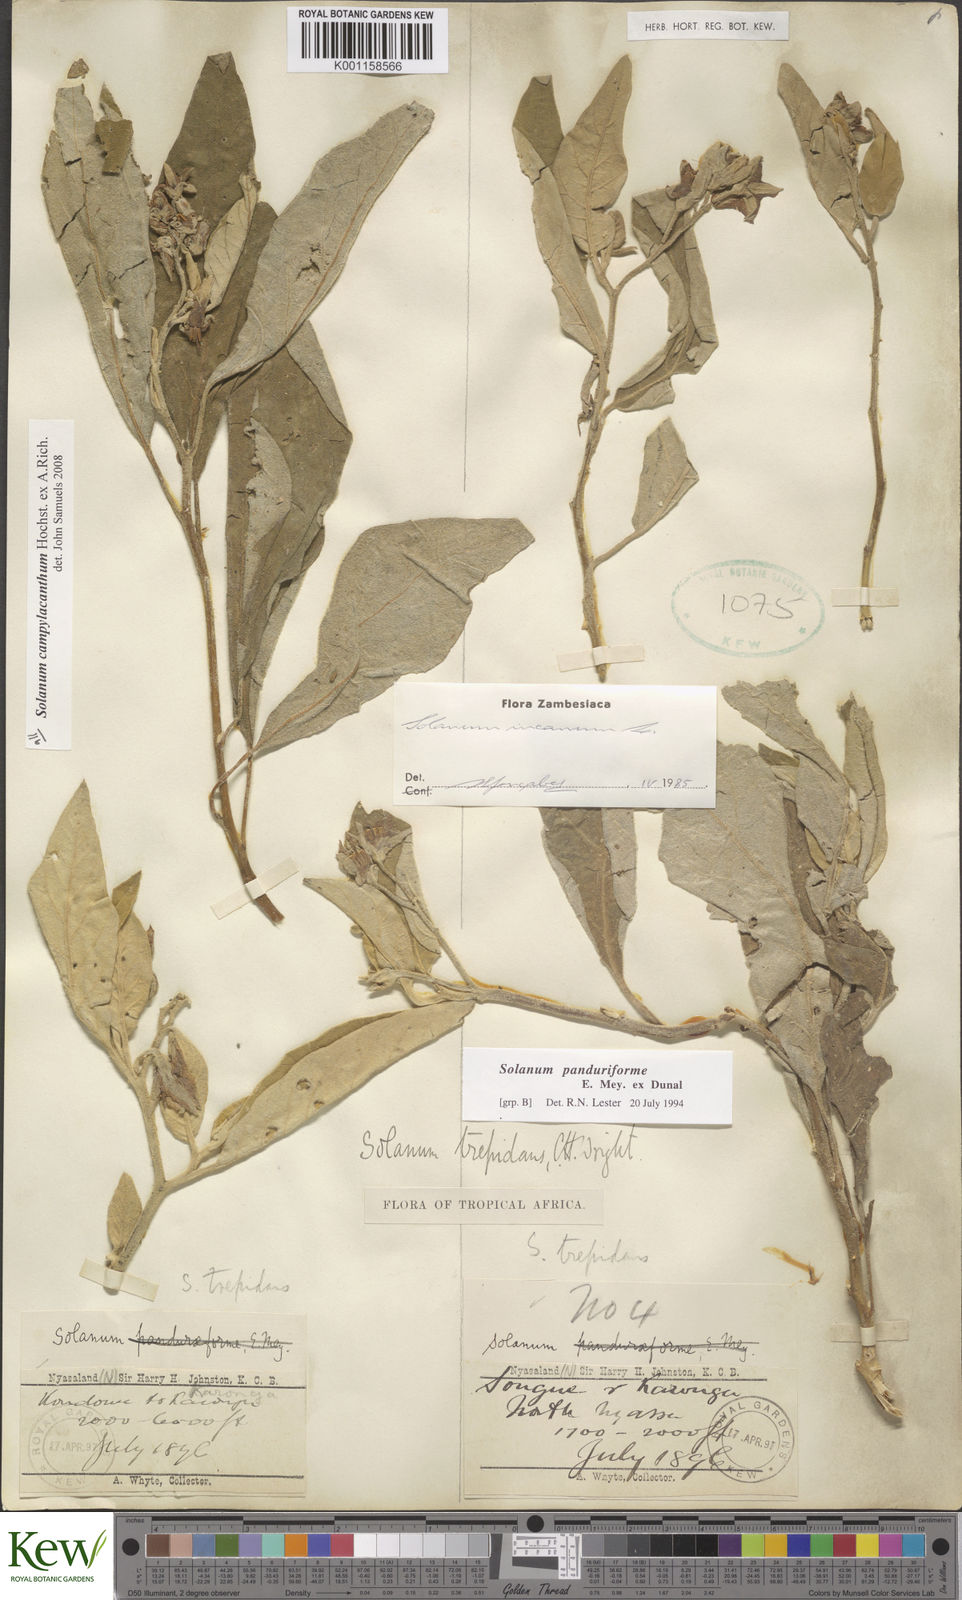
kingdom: Plantae
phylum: Tracheophyta
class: Magnoliopsida
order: Solanales
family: Solanaceae
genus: Solanum
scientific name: Solanum campylacanthum
